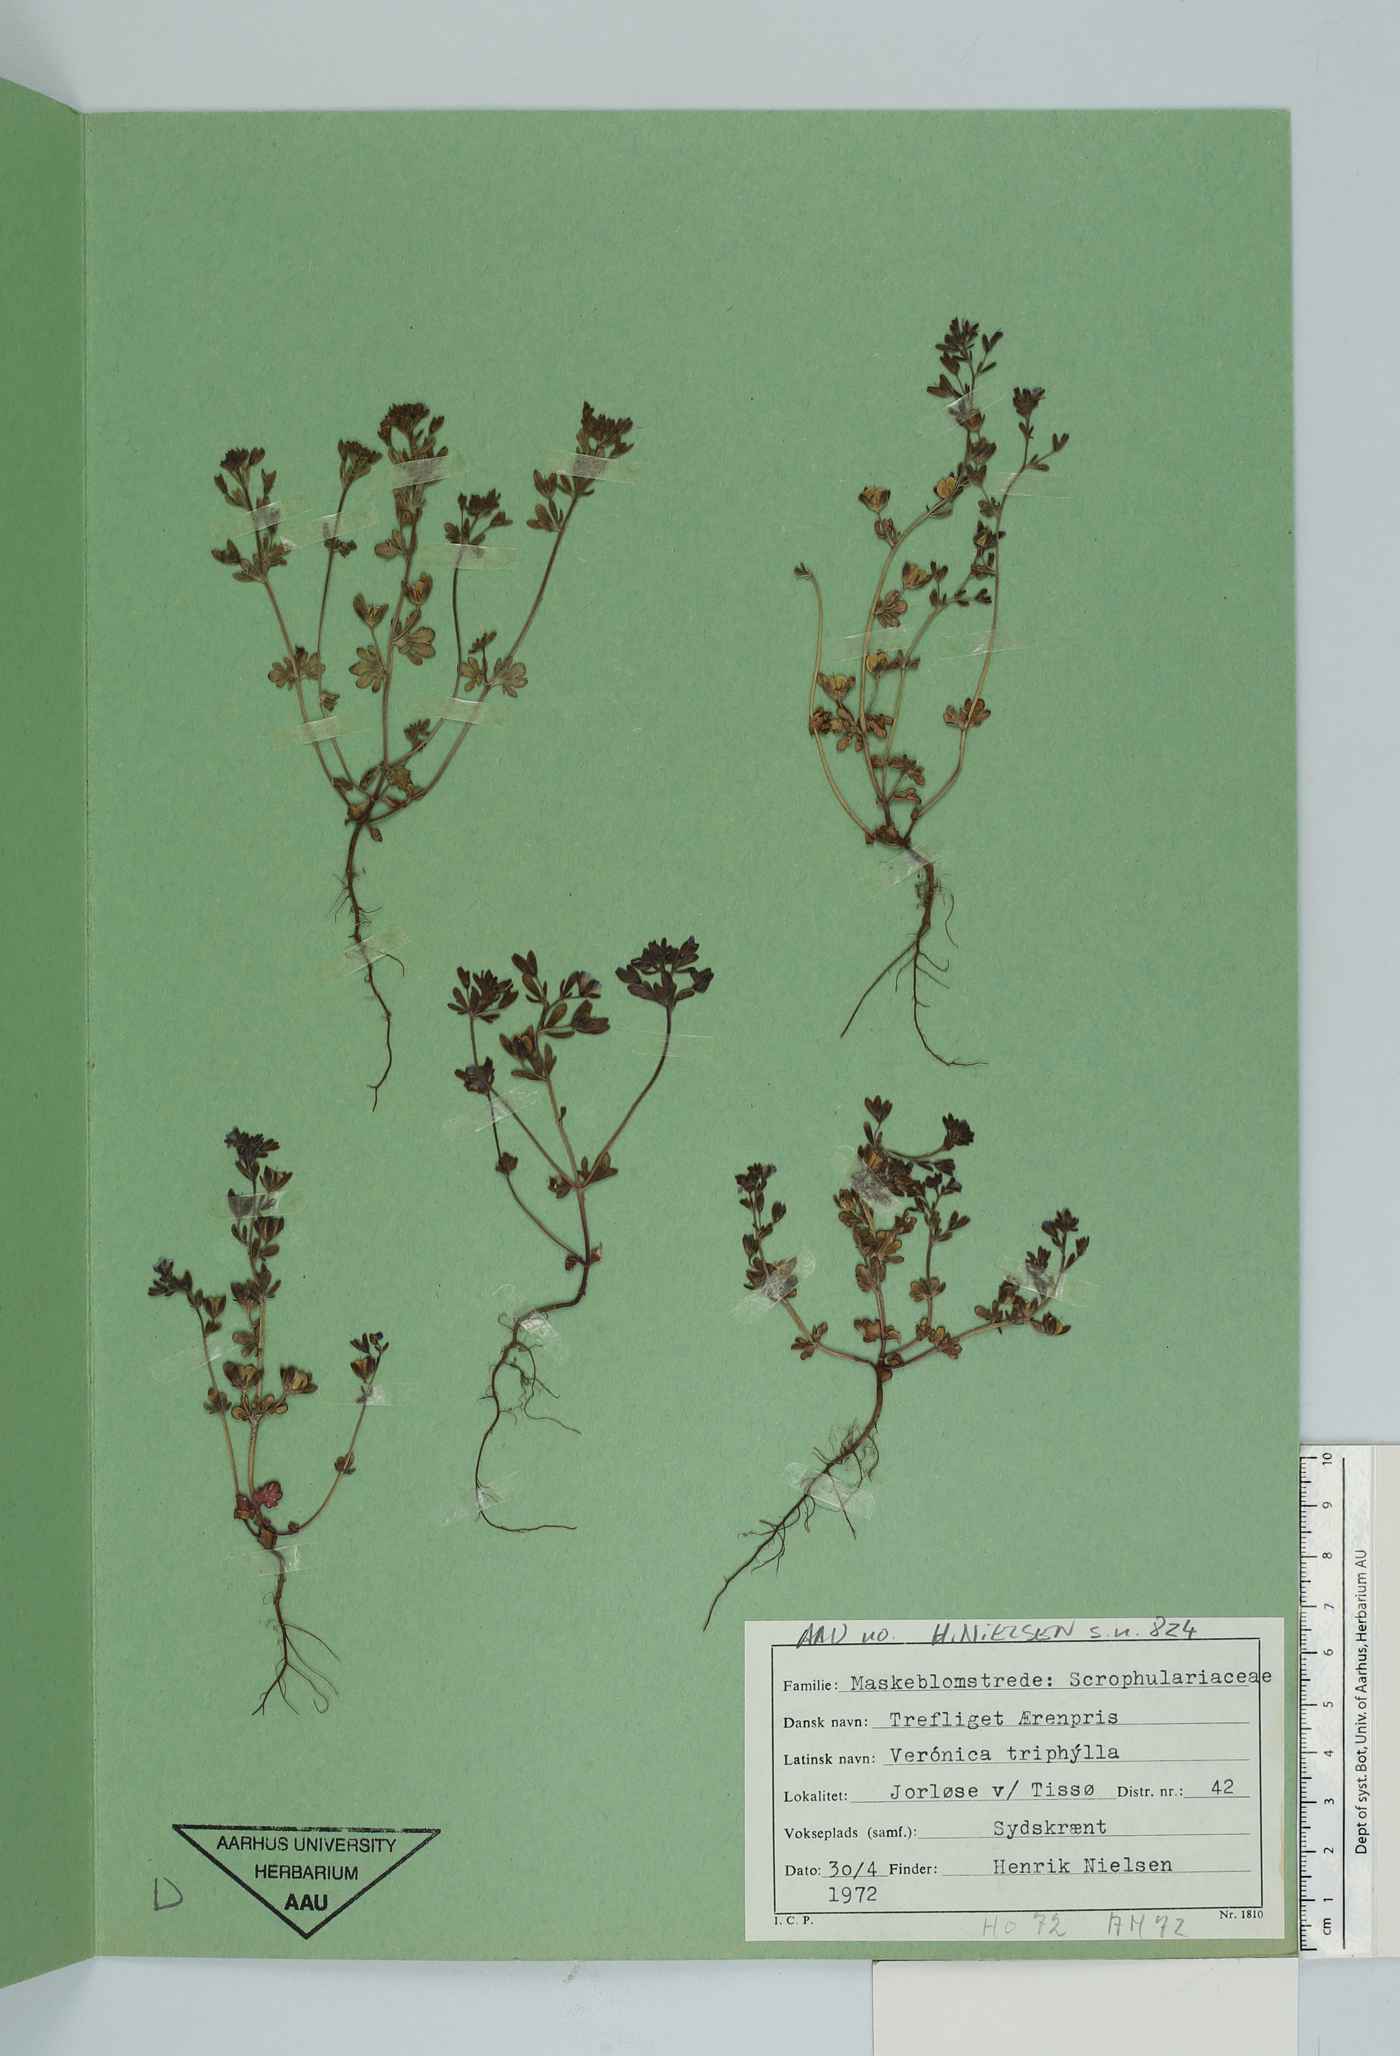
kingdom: Plantae
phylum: Tracheophyta
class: Magnoliopsida
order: Lamiales
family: Plantaginaceae
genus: Veronica
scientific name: Veronica triphyllos
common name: Fingered speedwell
